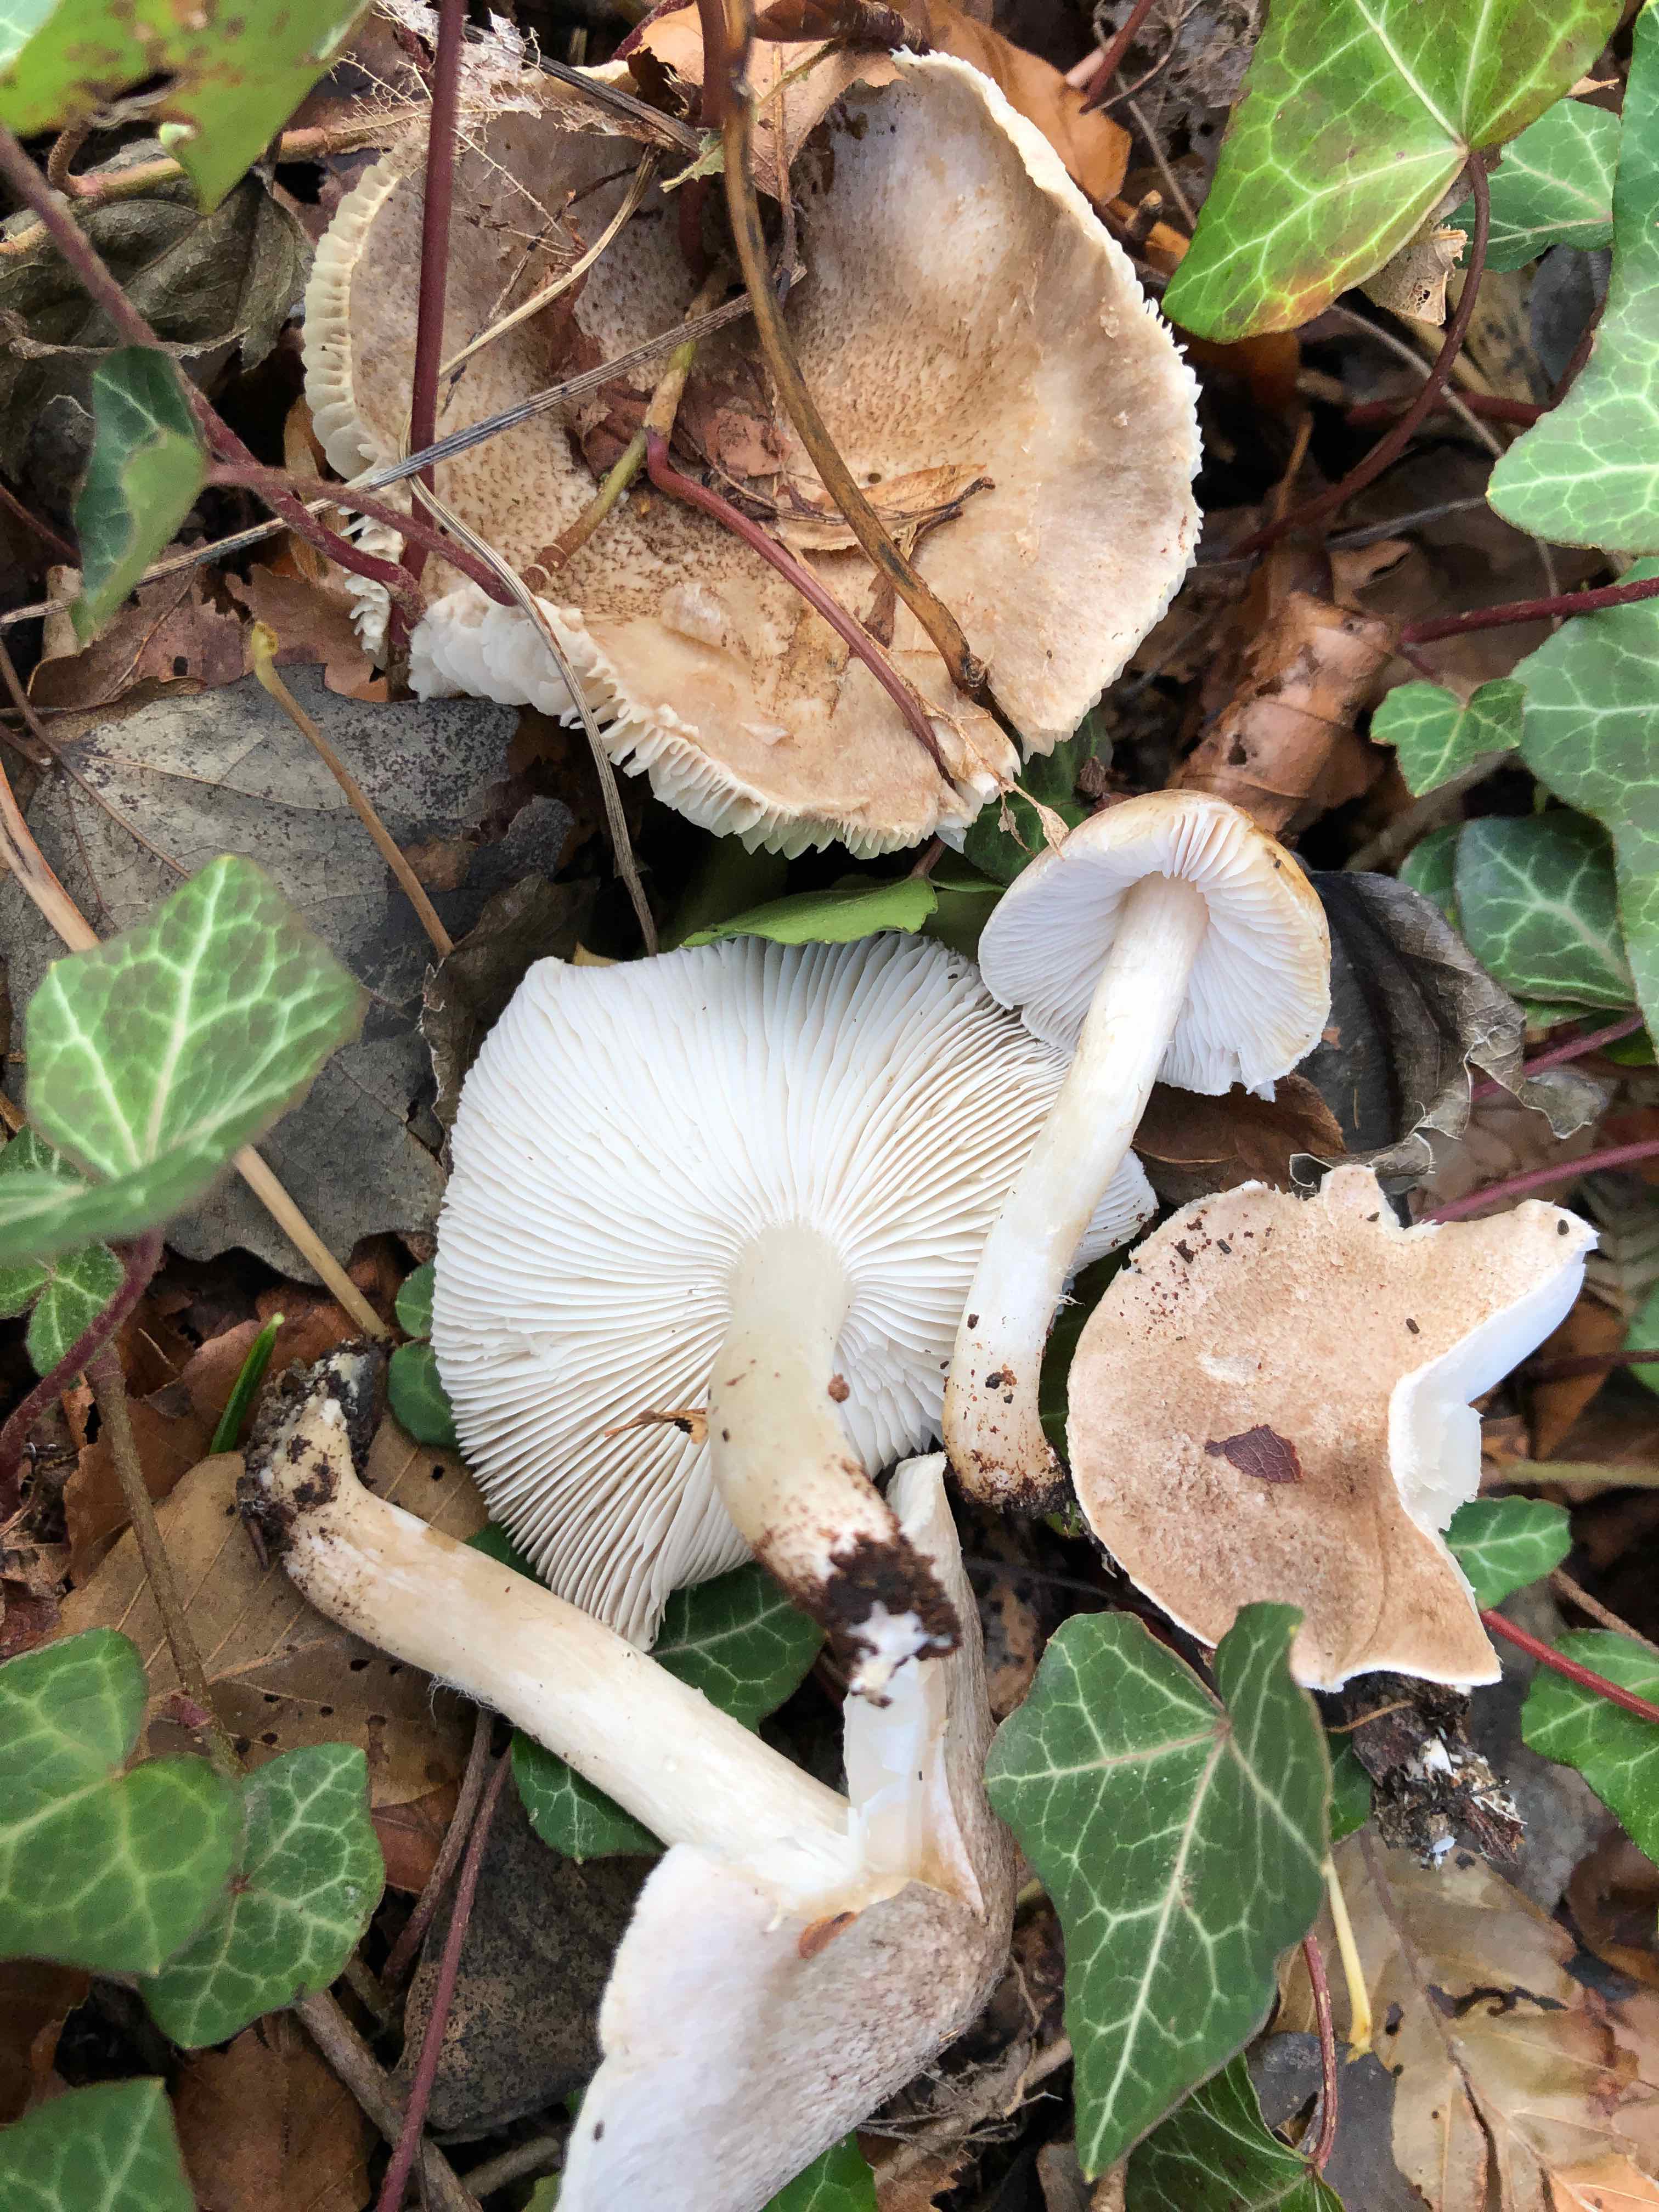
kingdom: Fungi
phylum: Basidiomycota
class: Agaricomycetes
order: Agaricales
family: Tricholomataceae
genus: Tricholoma
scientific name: Tricholoma scalpturatum
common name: gulplettet ridderhat
